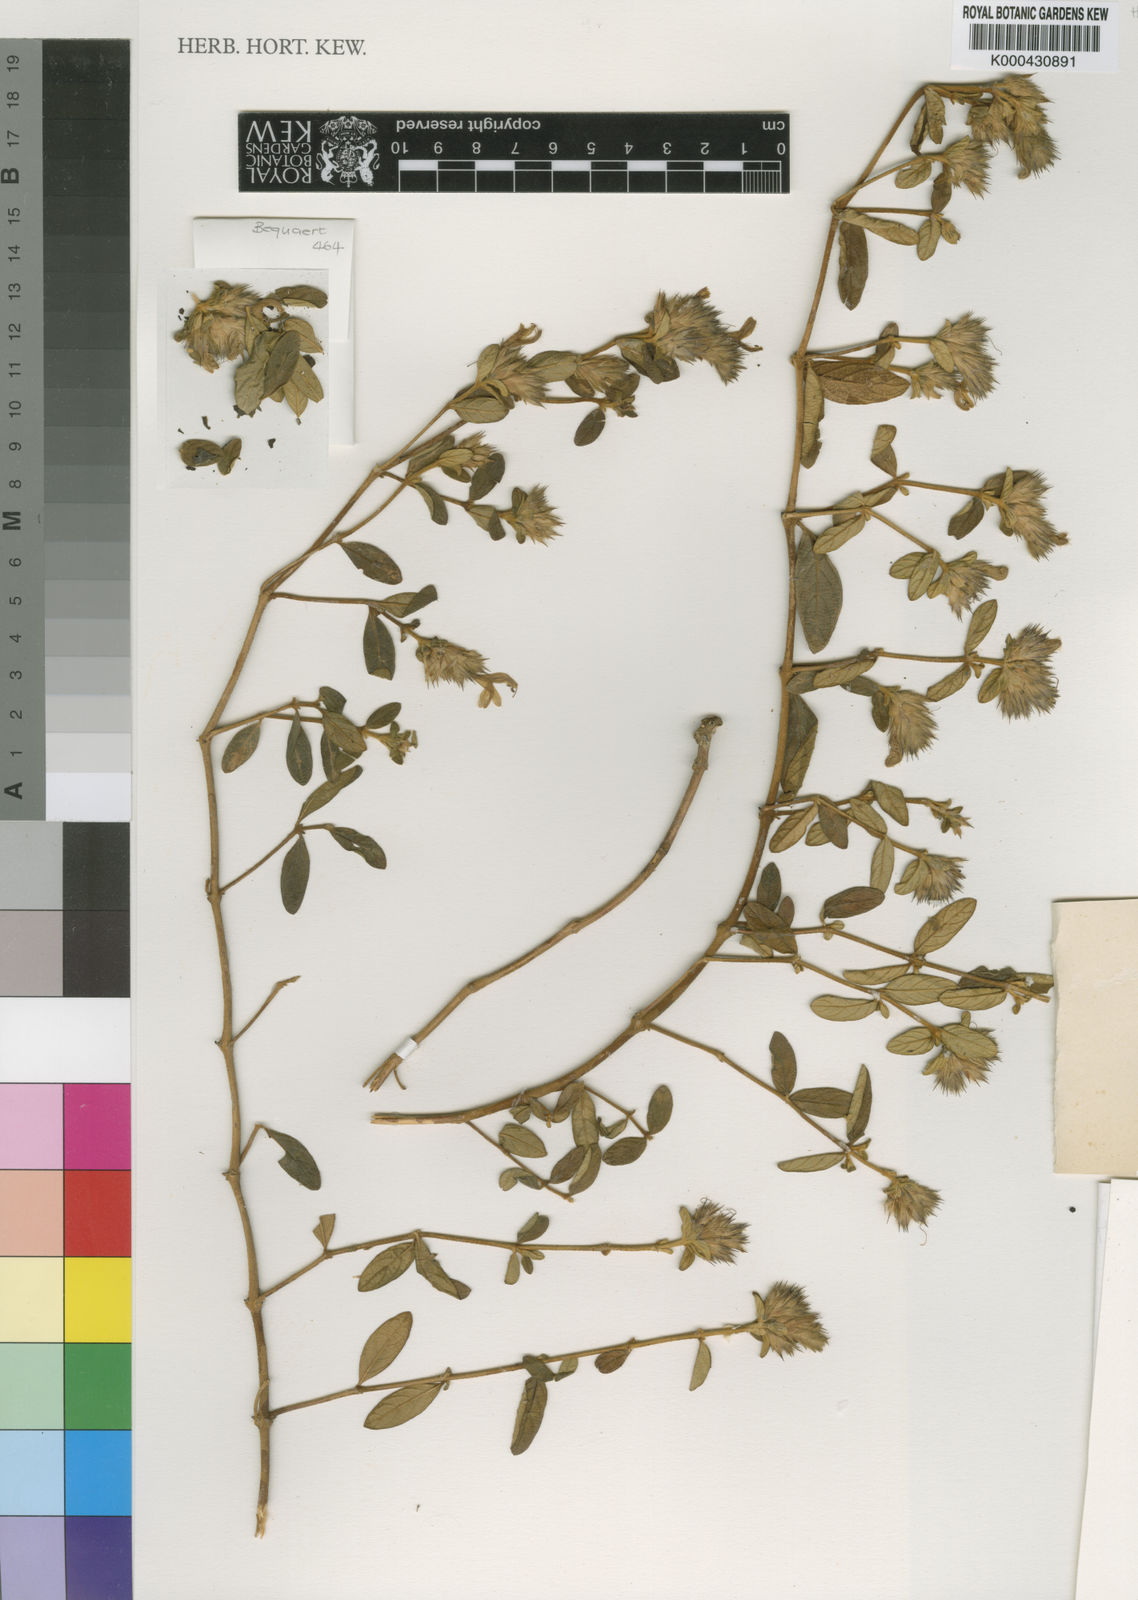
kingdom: Plantae
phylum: Tracheophyta
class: Magnoliopsida
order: Lamiales
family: Acanthaceae
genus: Lepidagathis
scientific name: Lepidagathis scariosa
